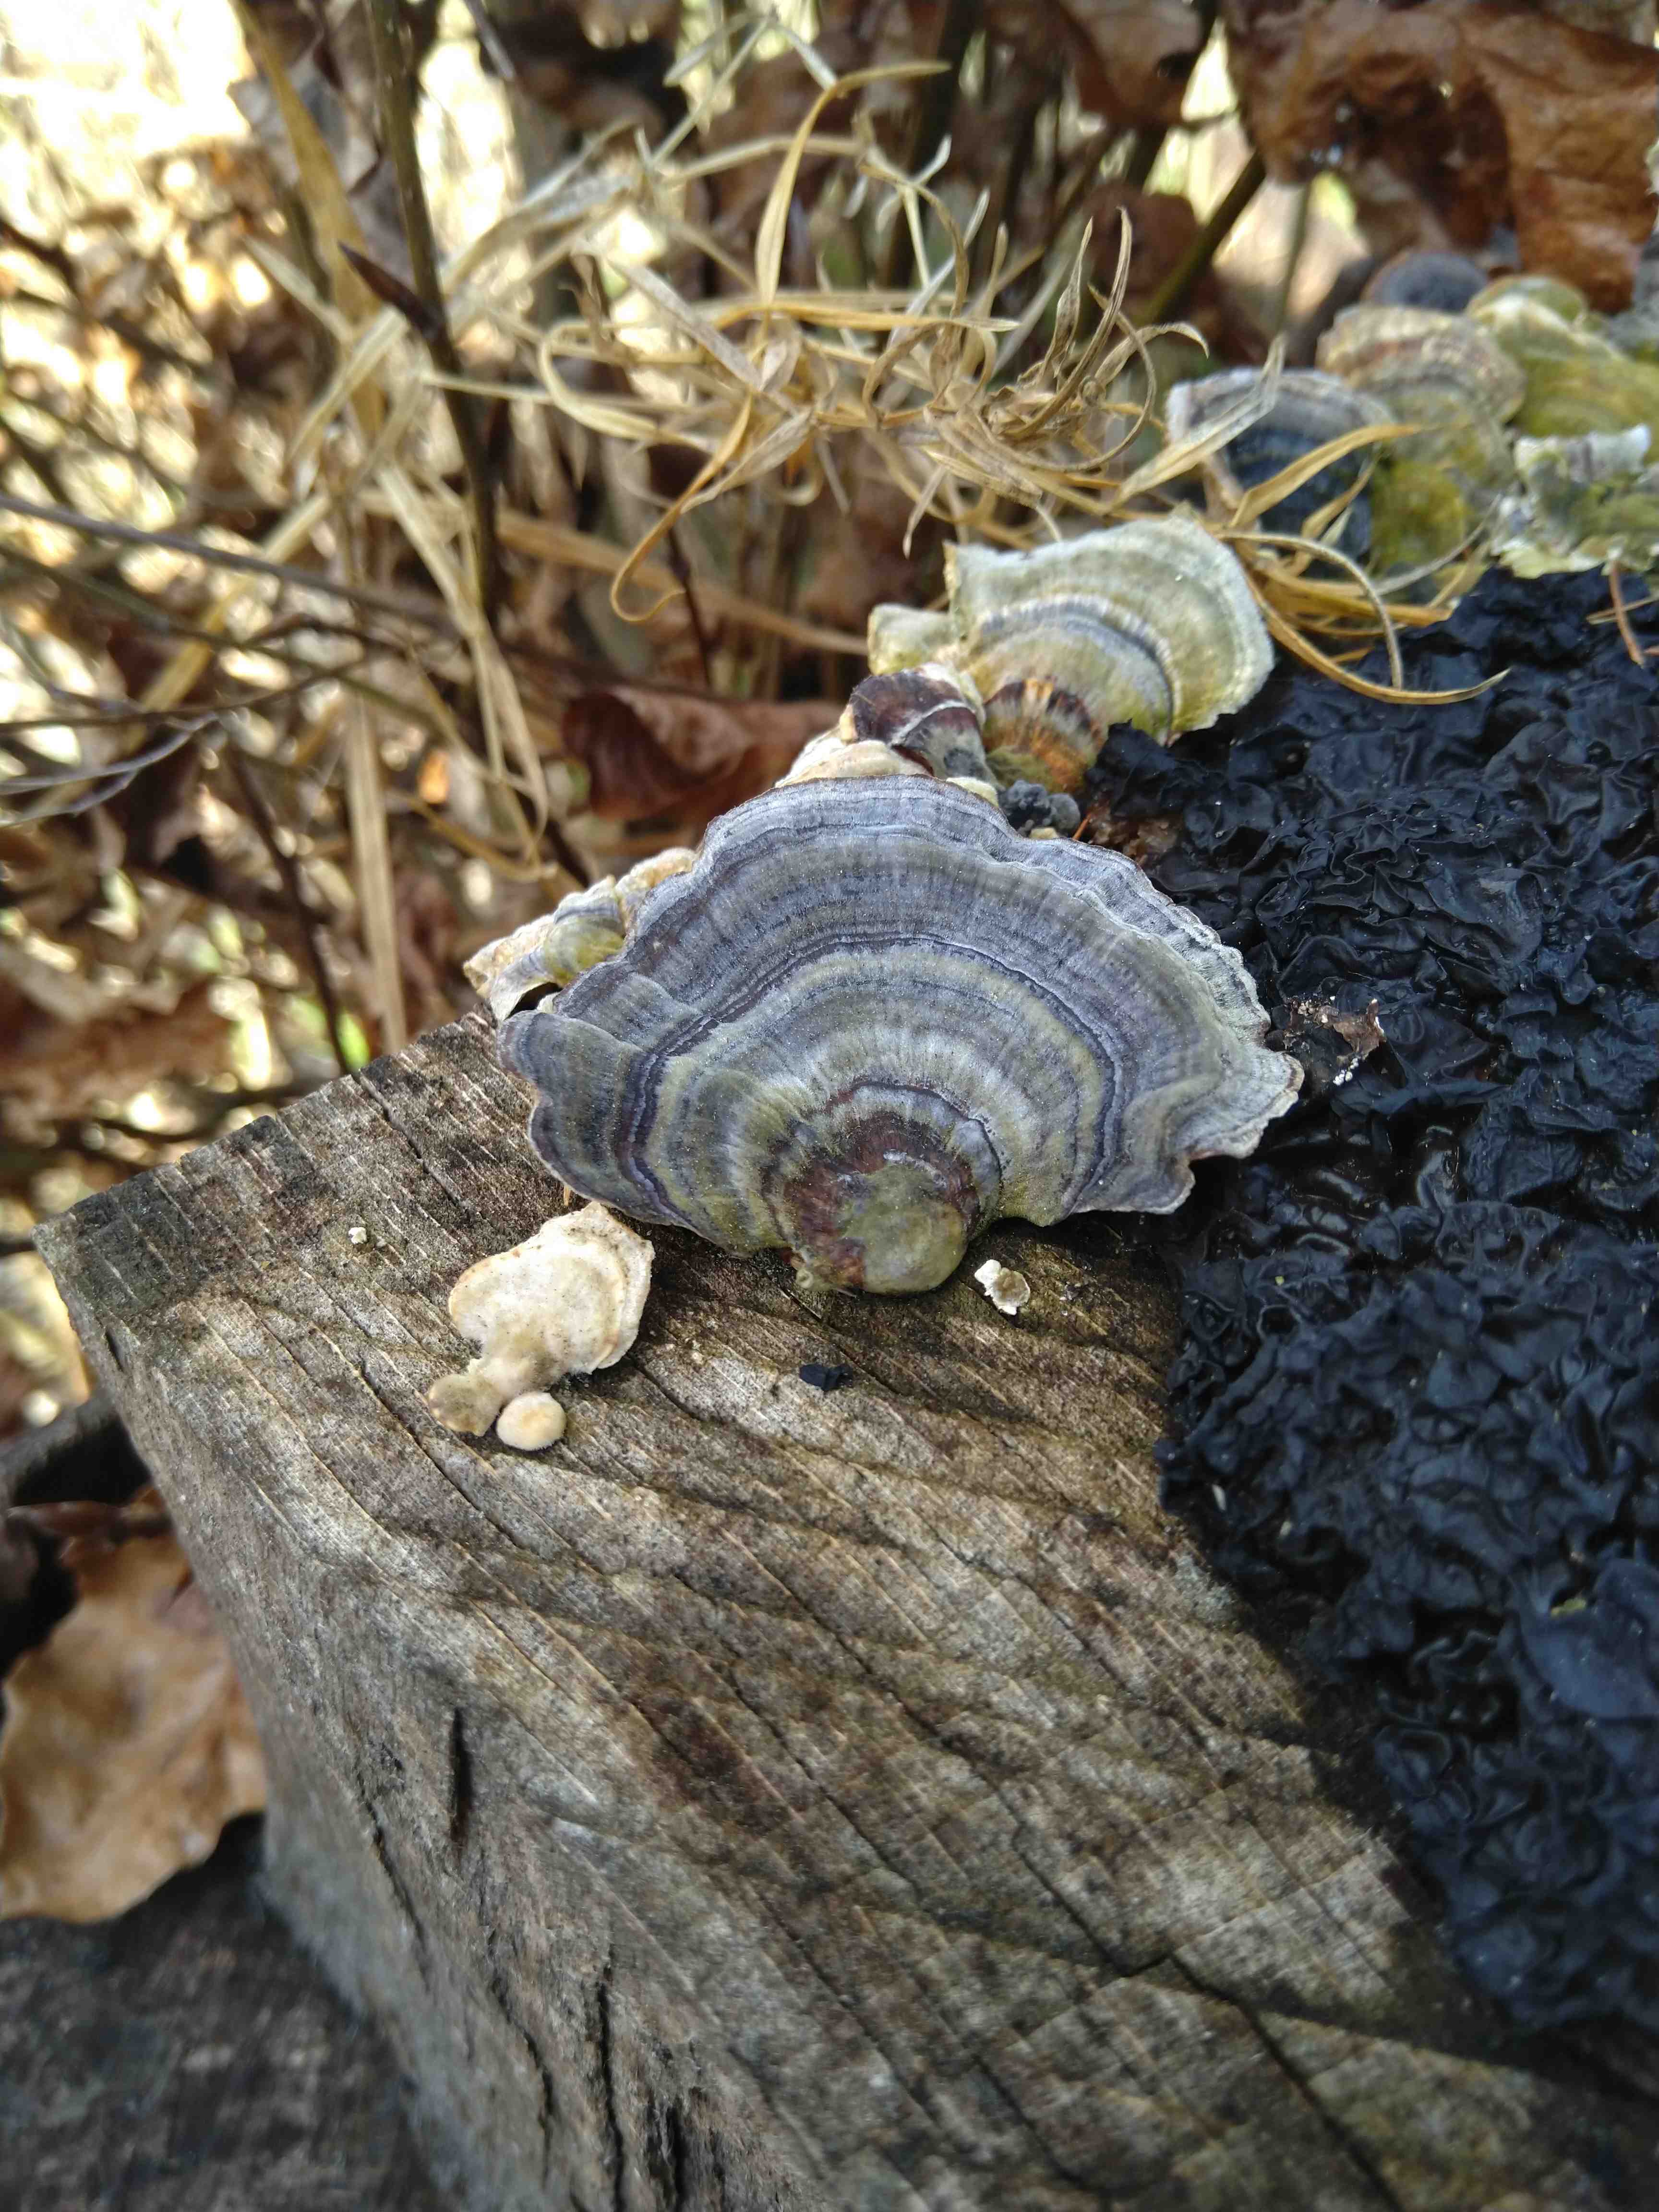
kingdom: Fungi
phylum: Basidiomycota
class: Agaricomycetes
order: Polyporales
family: Polyporaceae
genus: Trametes
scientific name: Trametes versicolor
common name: broget læderporesvamp
